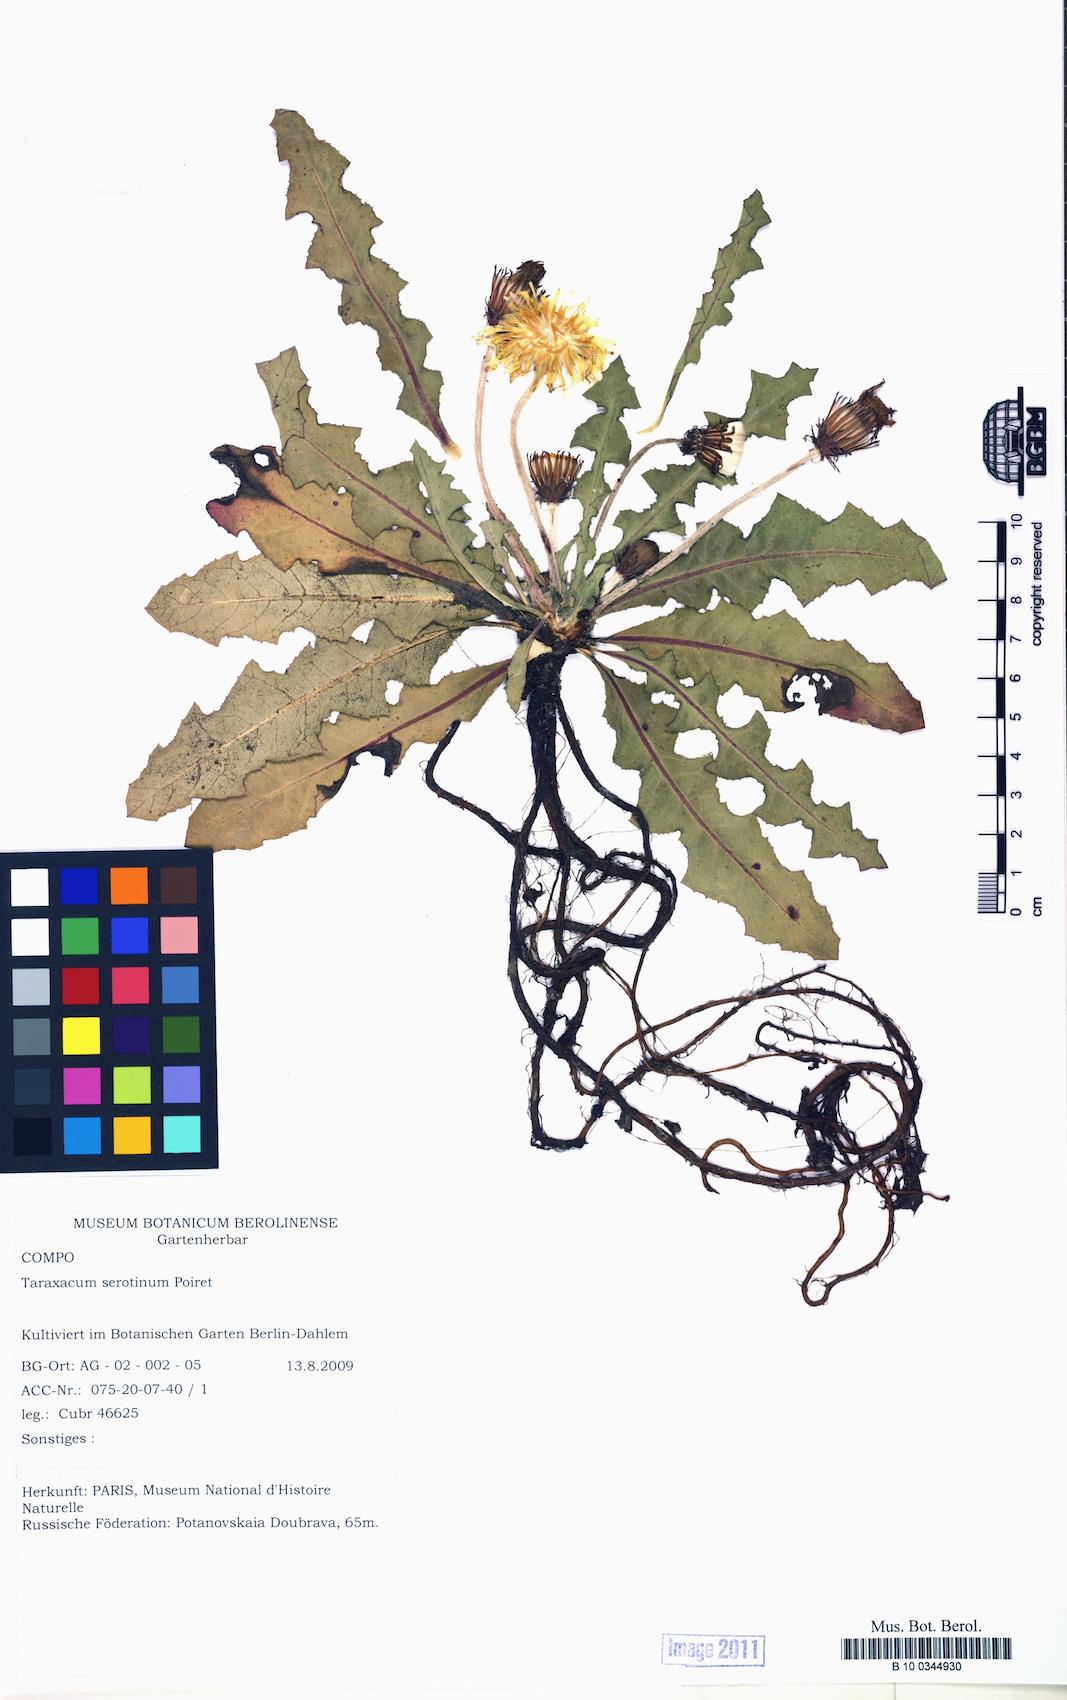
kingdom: Plantae
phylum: Tracheophyta
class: Magnoliopsida
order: Asterales
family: Asteraceae
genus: Taraxacum
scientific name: Taraxacum serotinum
